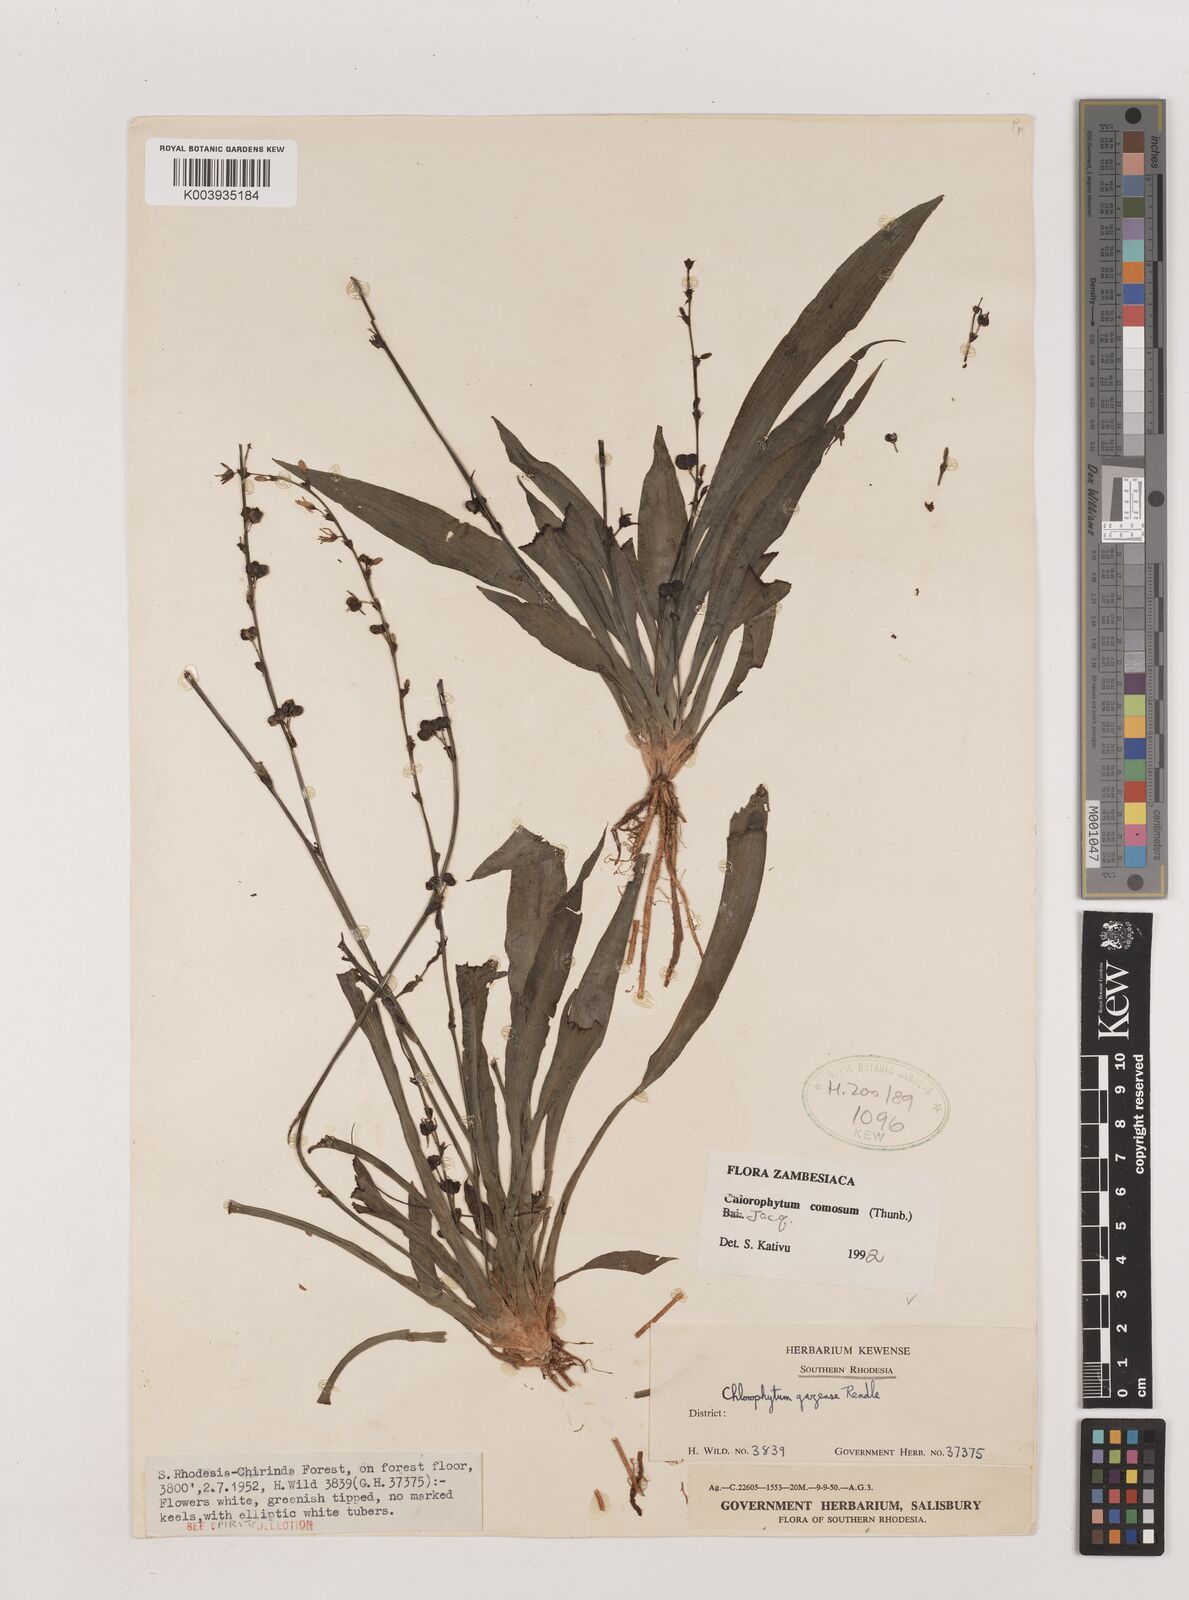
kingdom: Plantae
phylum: Tracheophyta
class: Liliopsida
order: Asparagales
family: Asparagaceae
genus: Chlorophytum
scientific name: Chlorophytum comosum
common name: Spider plant
